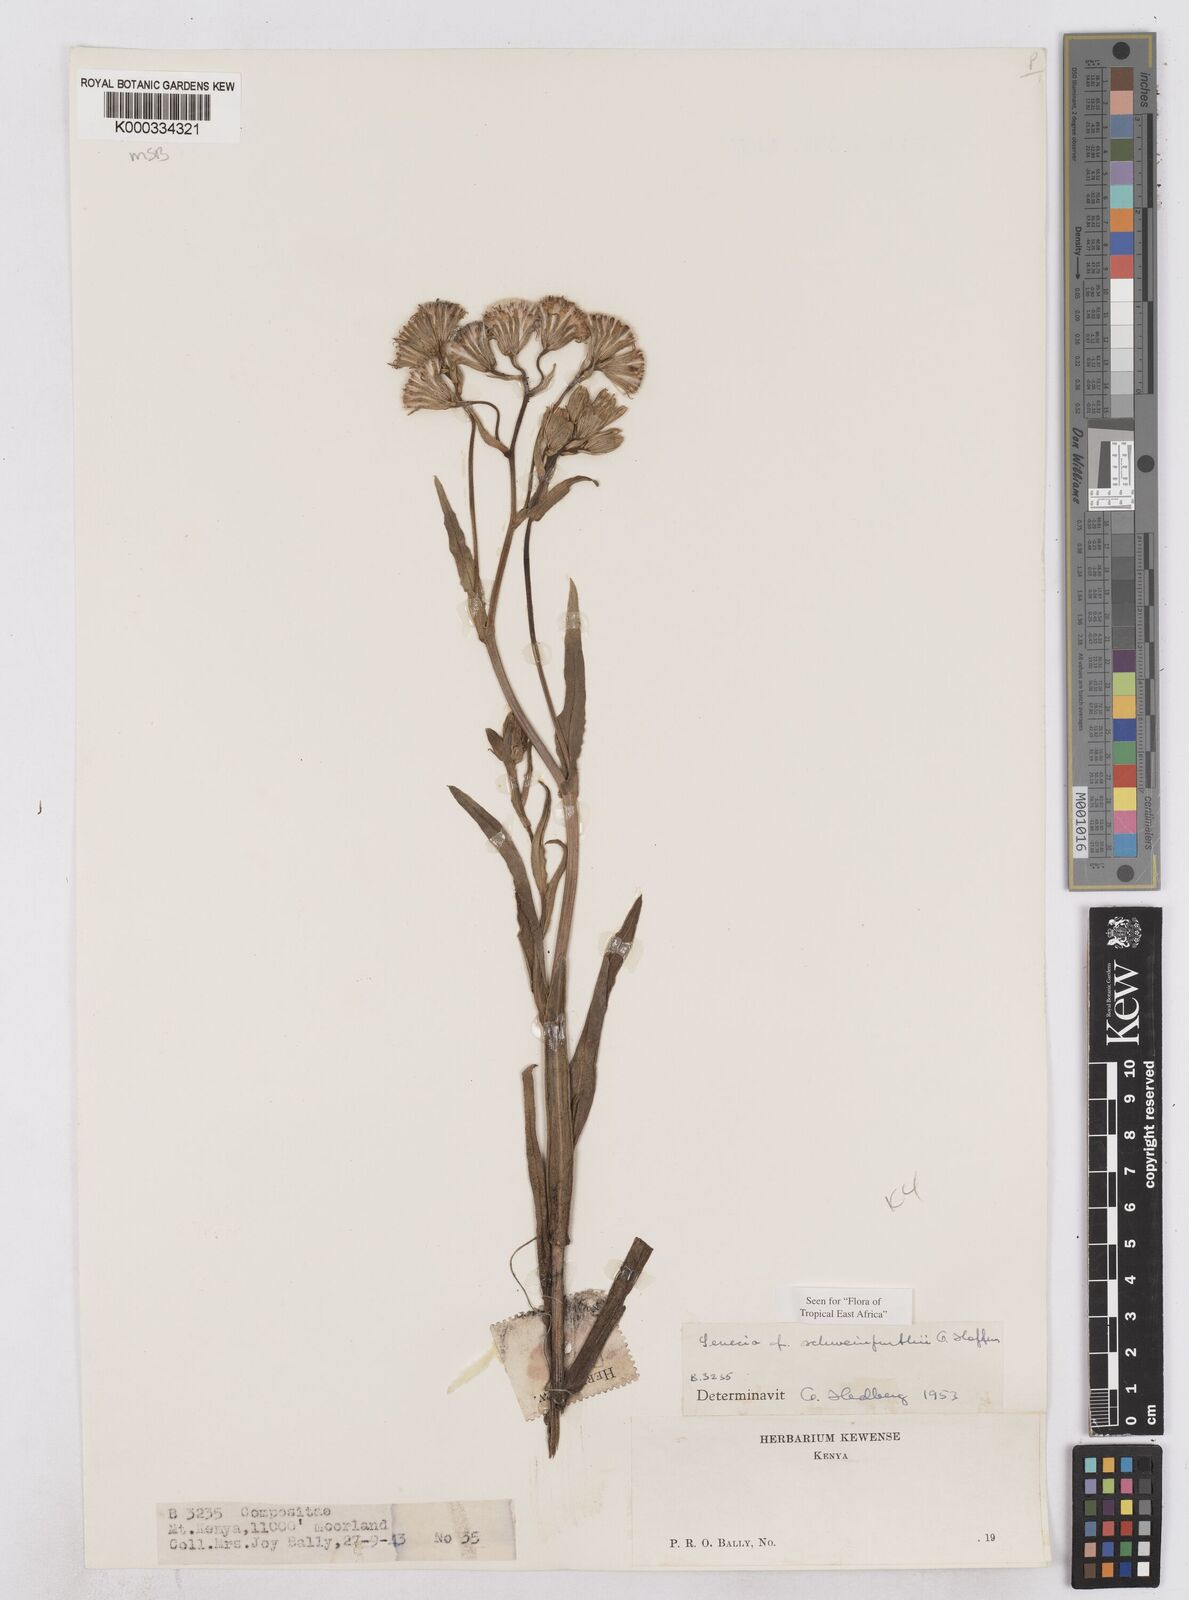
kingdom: Plantae
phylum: Tracheophyta
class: Magnoliopsida
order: Asterales
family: Asteraceae
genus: Senecio
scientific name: Senecio schweinfurthii
